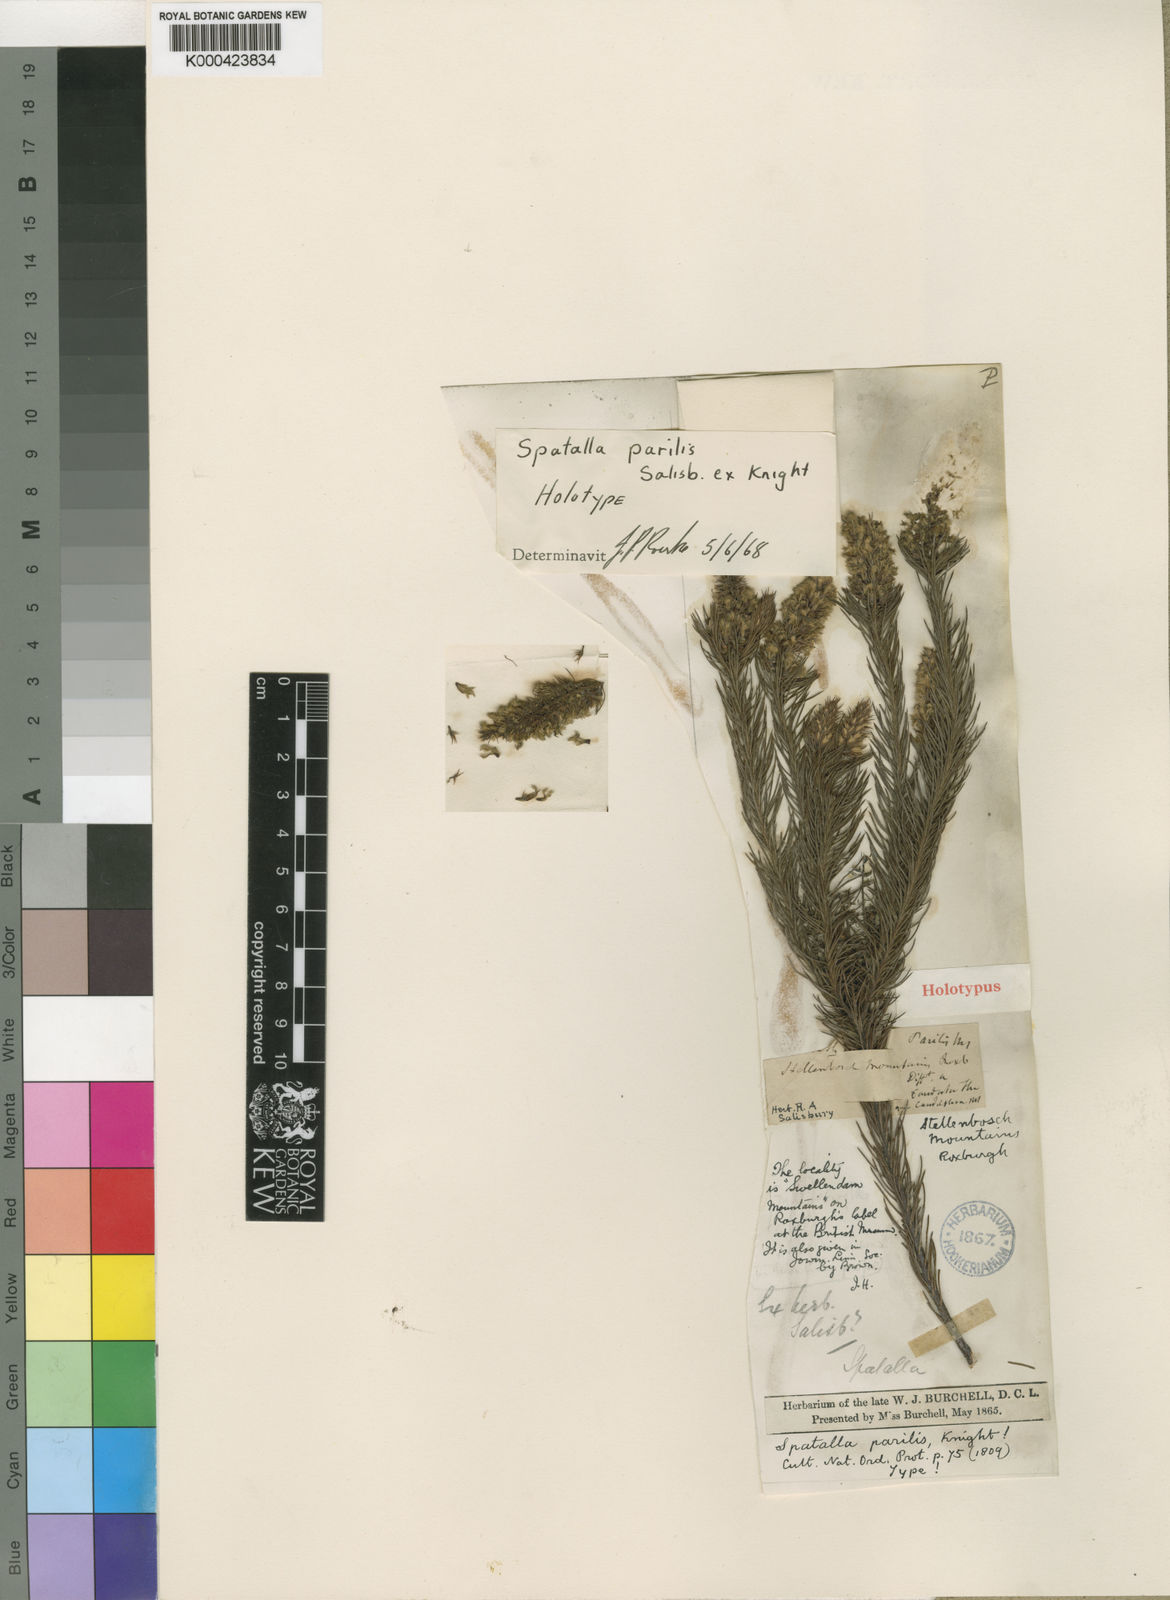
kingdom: Plantae
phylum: Tracheophyta
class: Magnoliopsida
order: Proteales
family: Proteaceae
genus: Spatalla
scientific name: Spatalla parilis
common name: Spike spoon
